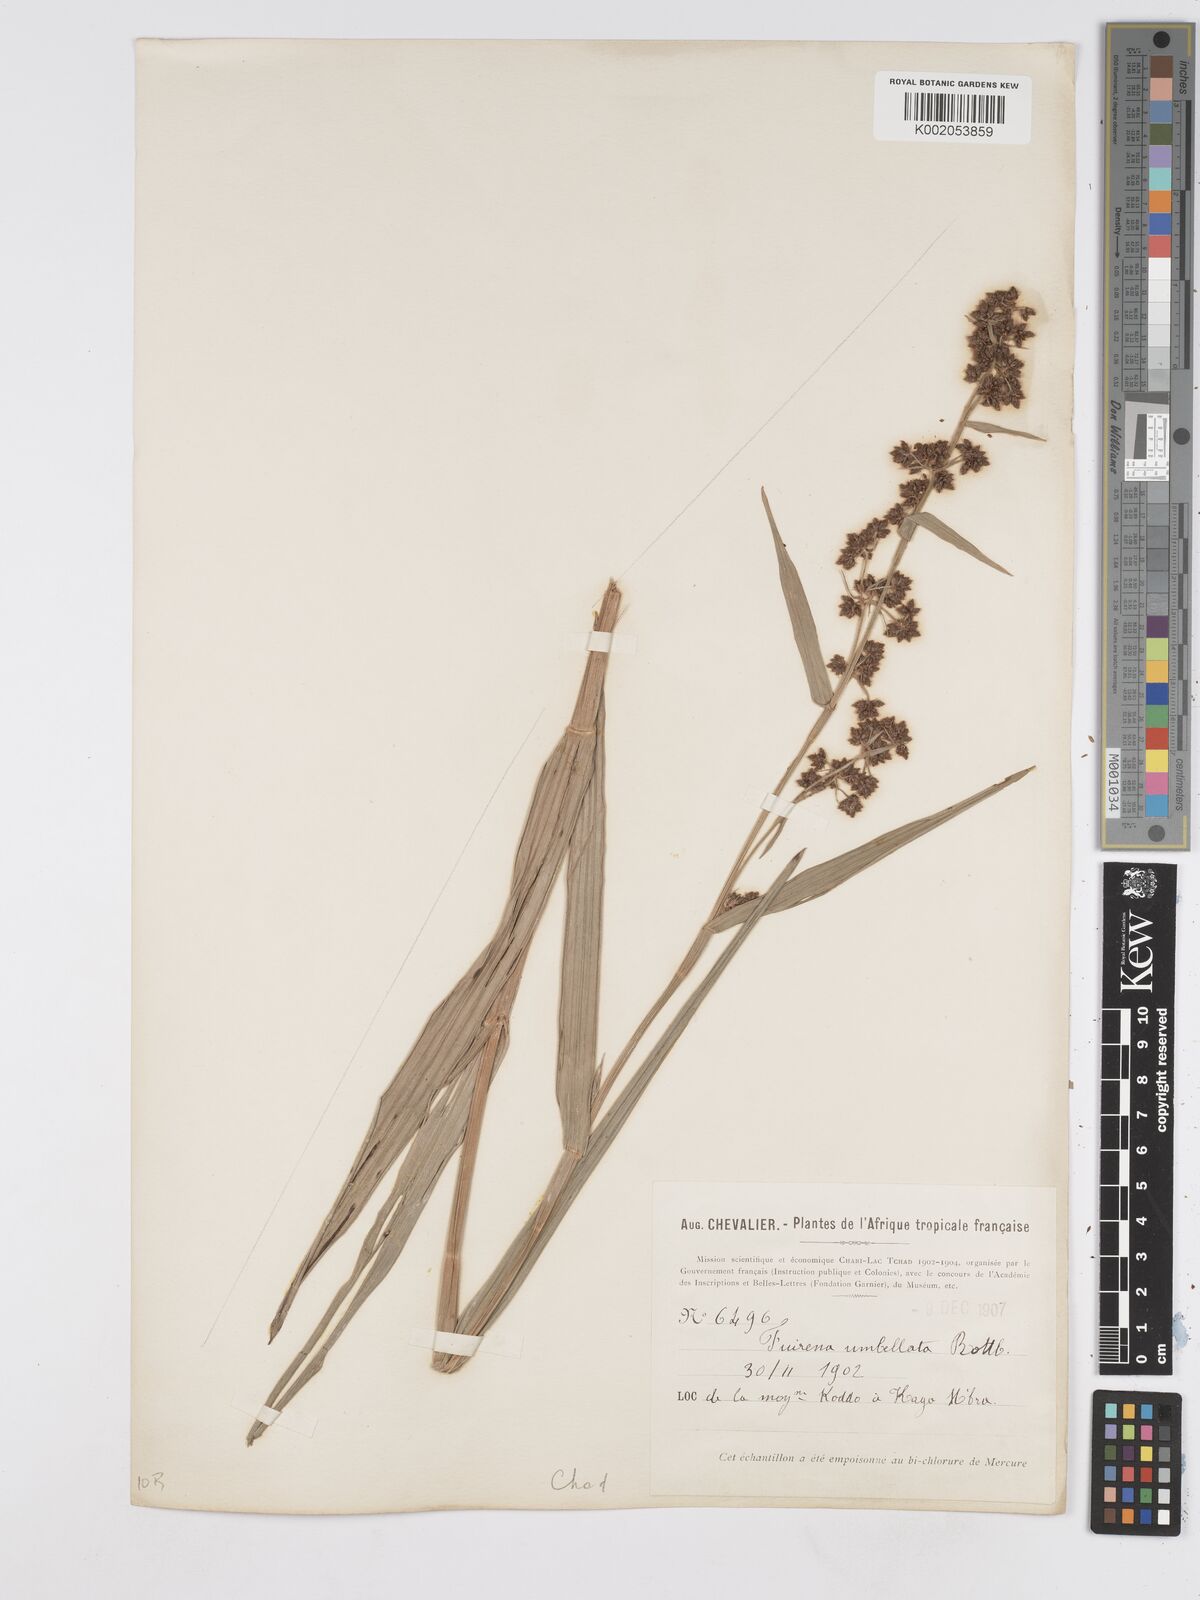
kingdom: Plantae
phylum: Tracheophyta
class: Liliopsida
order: Poales
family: Cyperaceae
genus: Fuirena
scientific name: Fuirena umbellata
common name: Yefen
